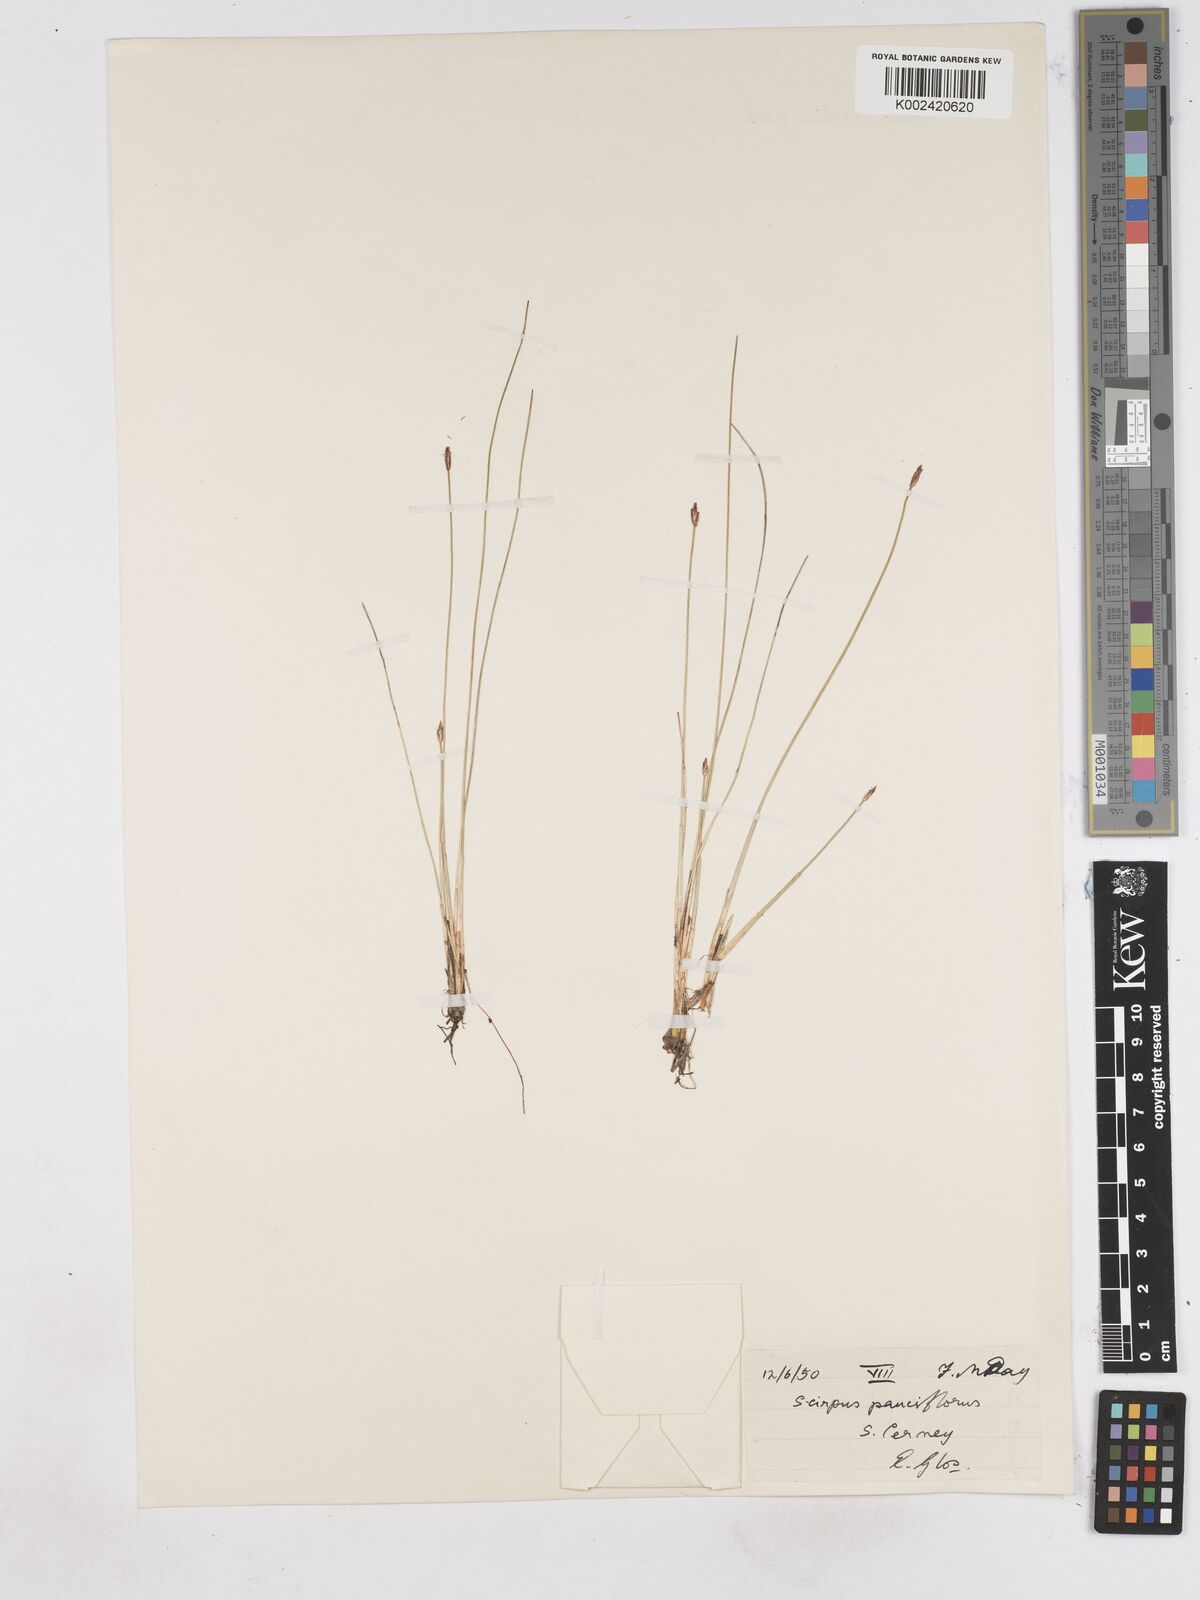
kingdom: Plantae
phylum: Tracheophyta
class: Liliopsida
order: Poales
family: Cyperaceae
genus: Eleocharis
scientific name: Eleocharis quinqueflora
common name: Few-flowered spike-rush
